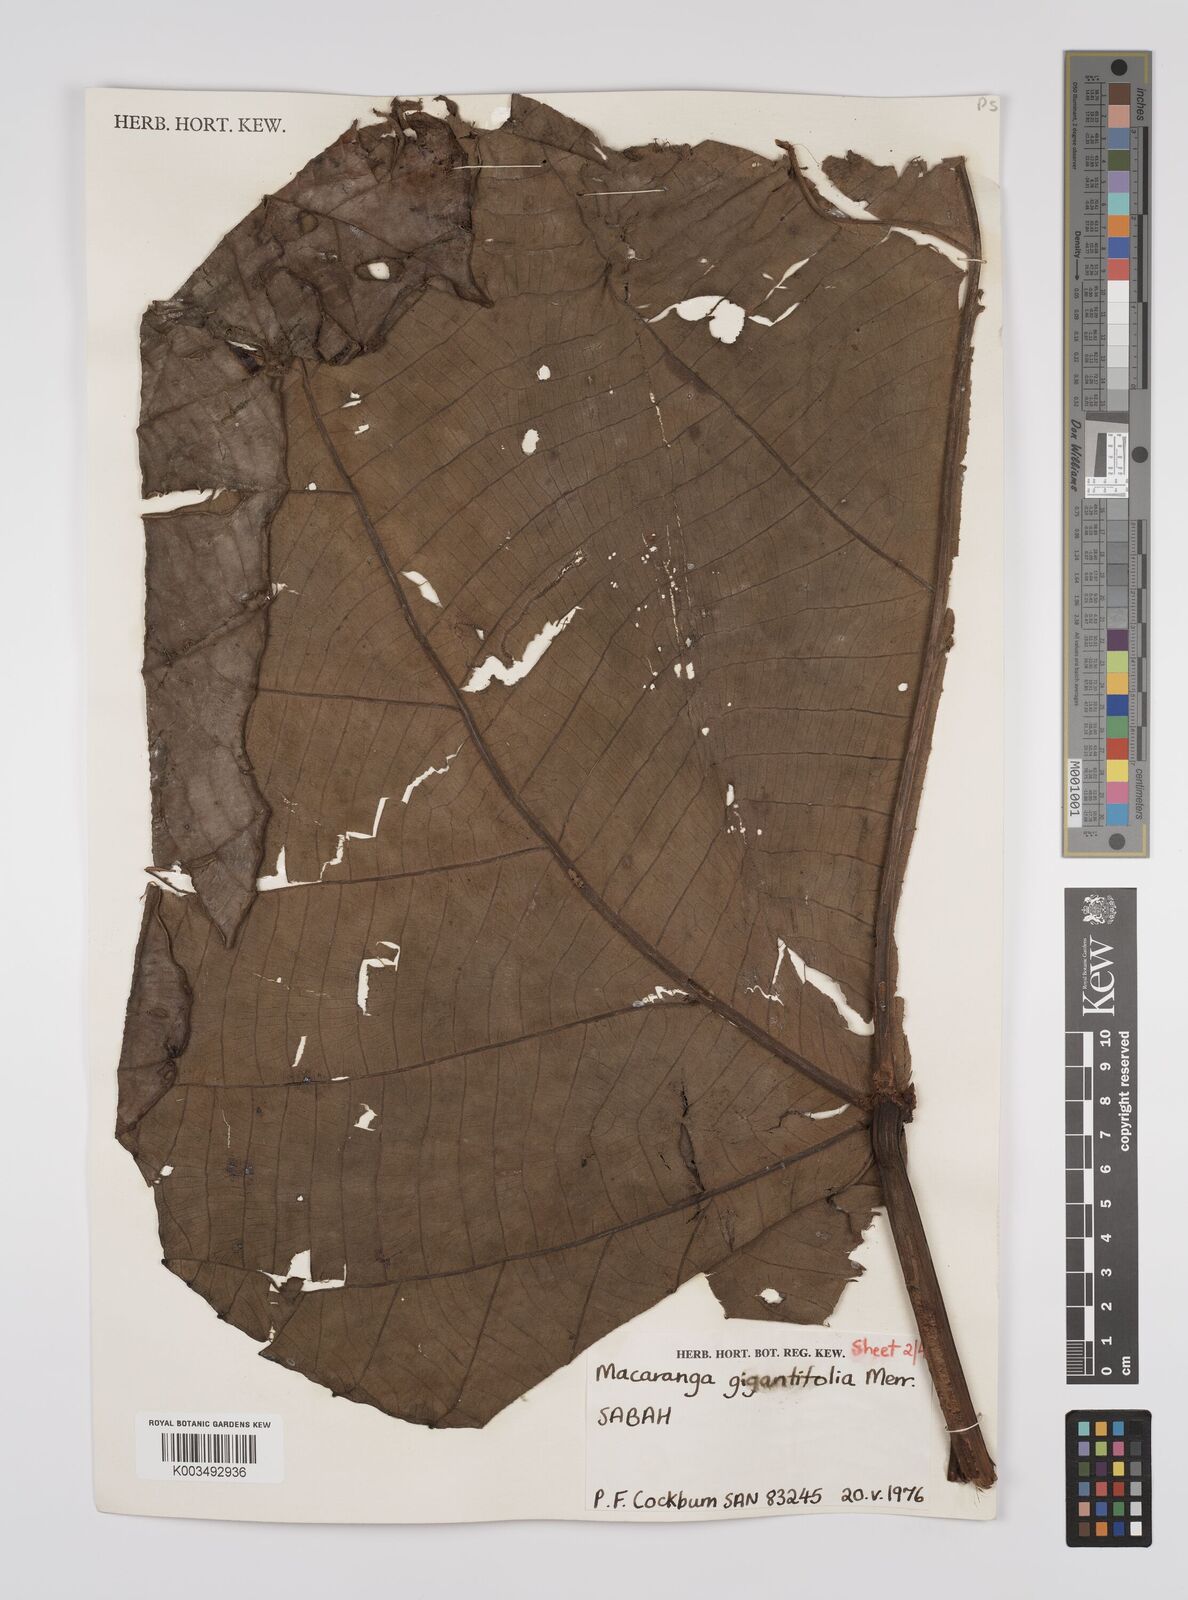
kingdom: Plantae
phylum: Tracheophyta
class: Magnoliopsida
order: Malpighiales
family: Euphorbiaceae
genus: Macaranga
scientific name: Macaranga gigantea
